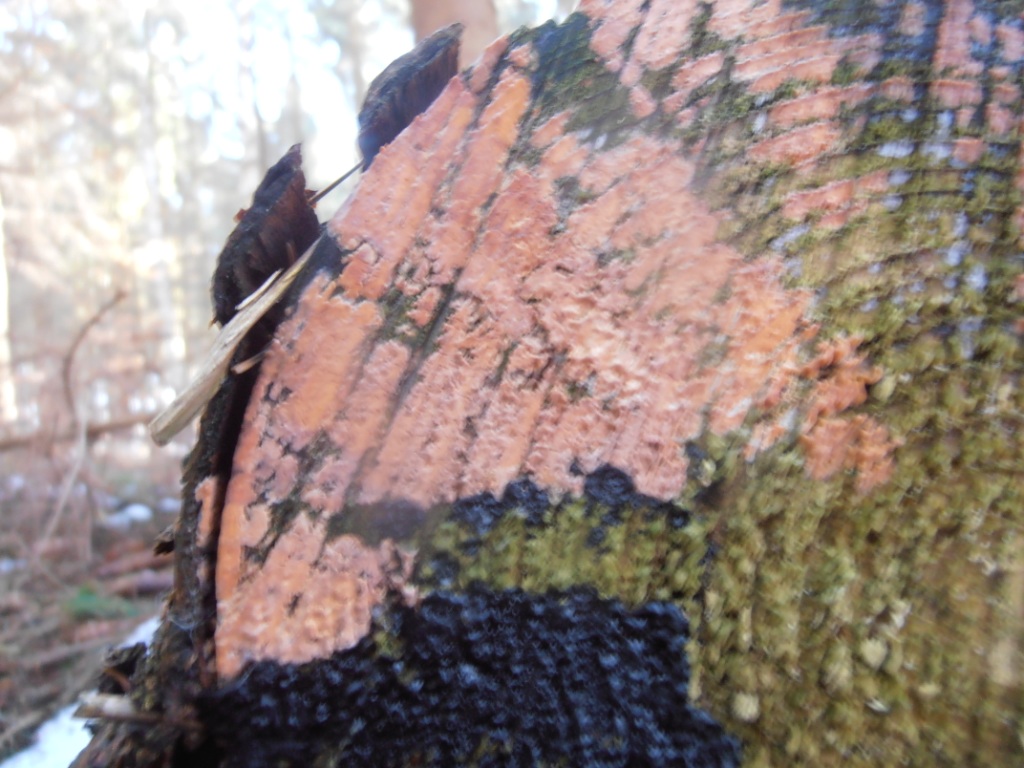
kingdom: Fungi
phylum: Basidiomycota
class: Agaricomycetes
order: Auriculariales
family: Auriculariaceae
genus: Exidia
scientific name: Exidia pithya
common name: gran-bævretop
